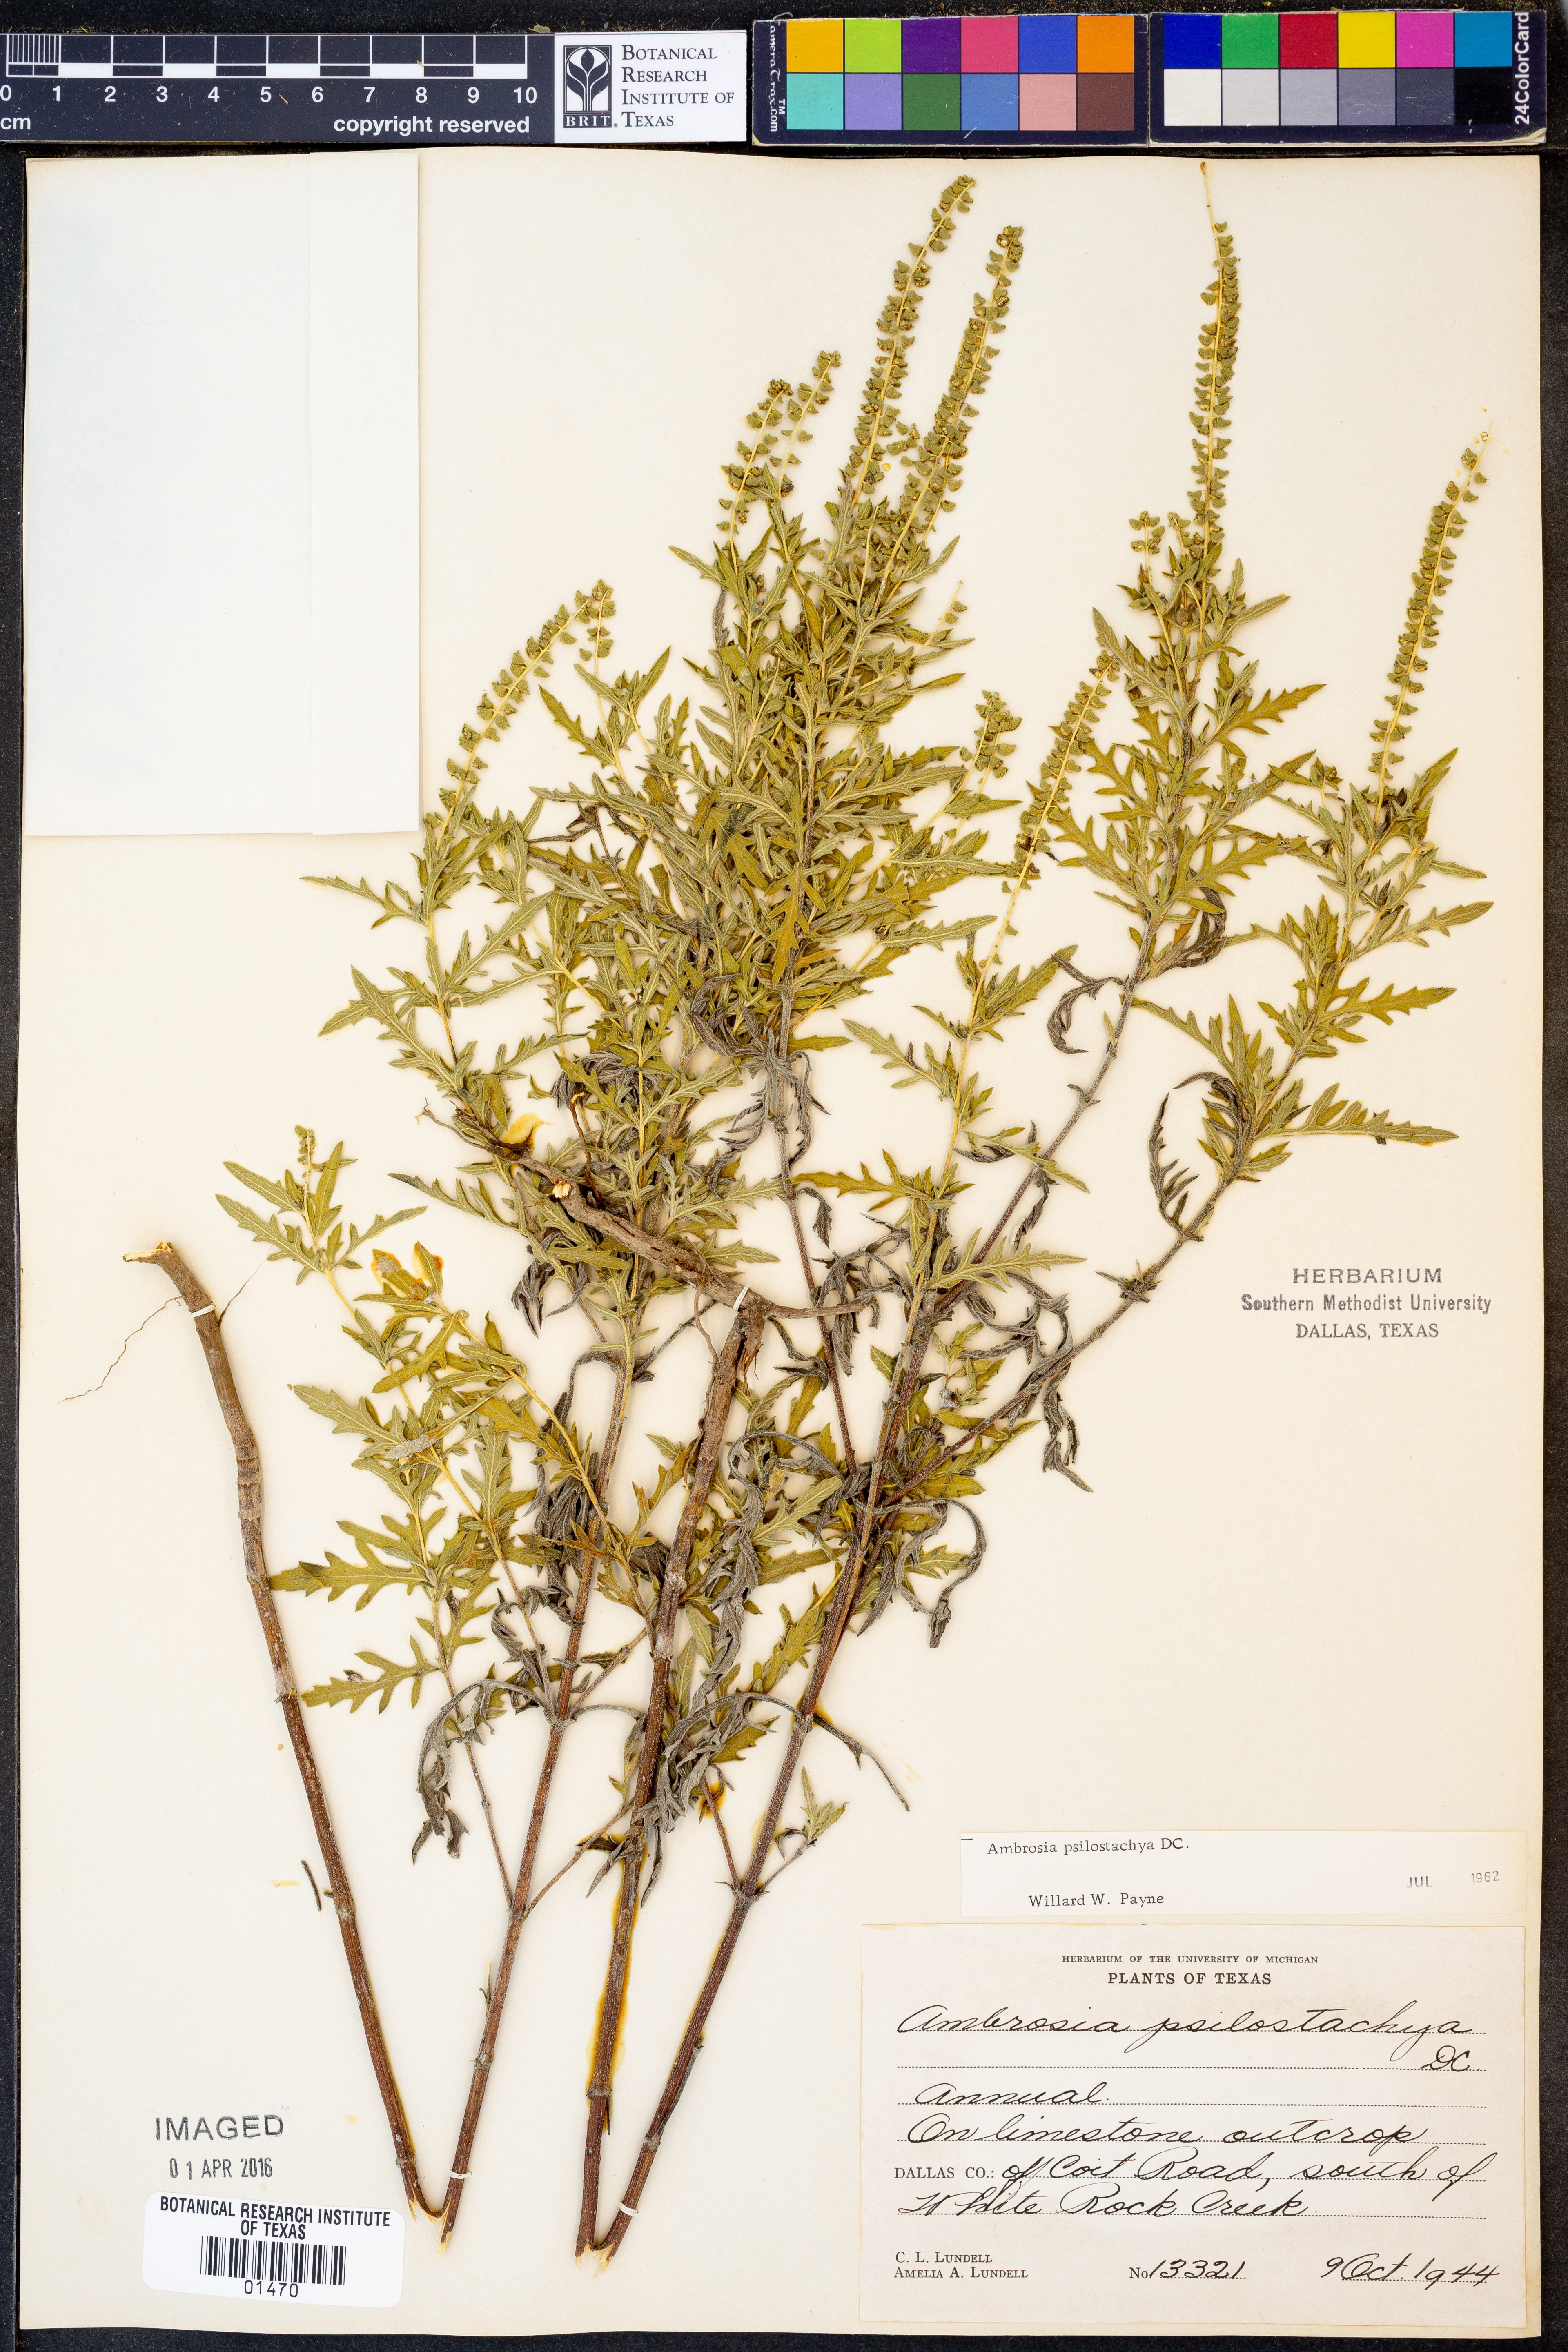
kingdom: Plantae
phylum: Tracheophyta
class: Magnoliopsida
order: Asterales
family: Asteraceae
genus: Ambrosia
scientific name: Ambrosia psilostachya
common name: Perennial ragweed
